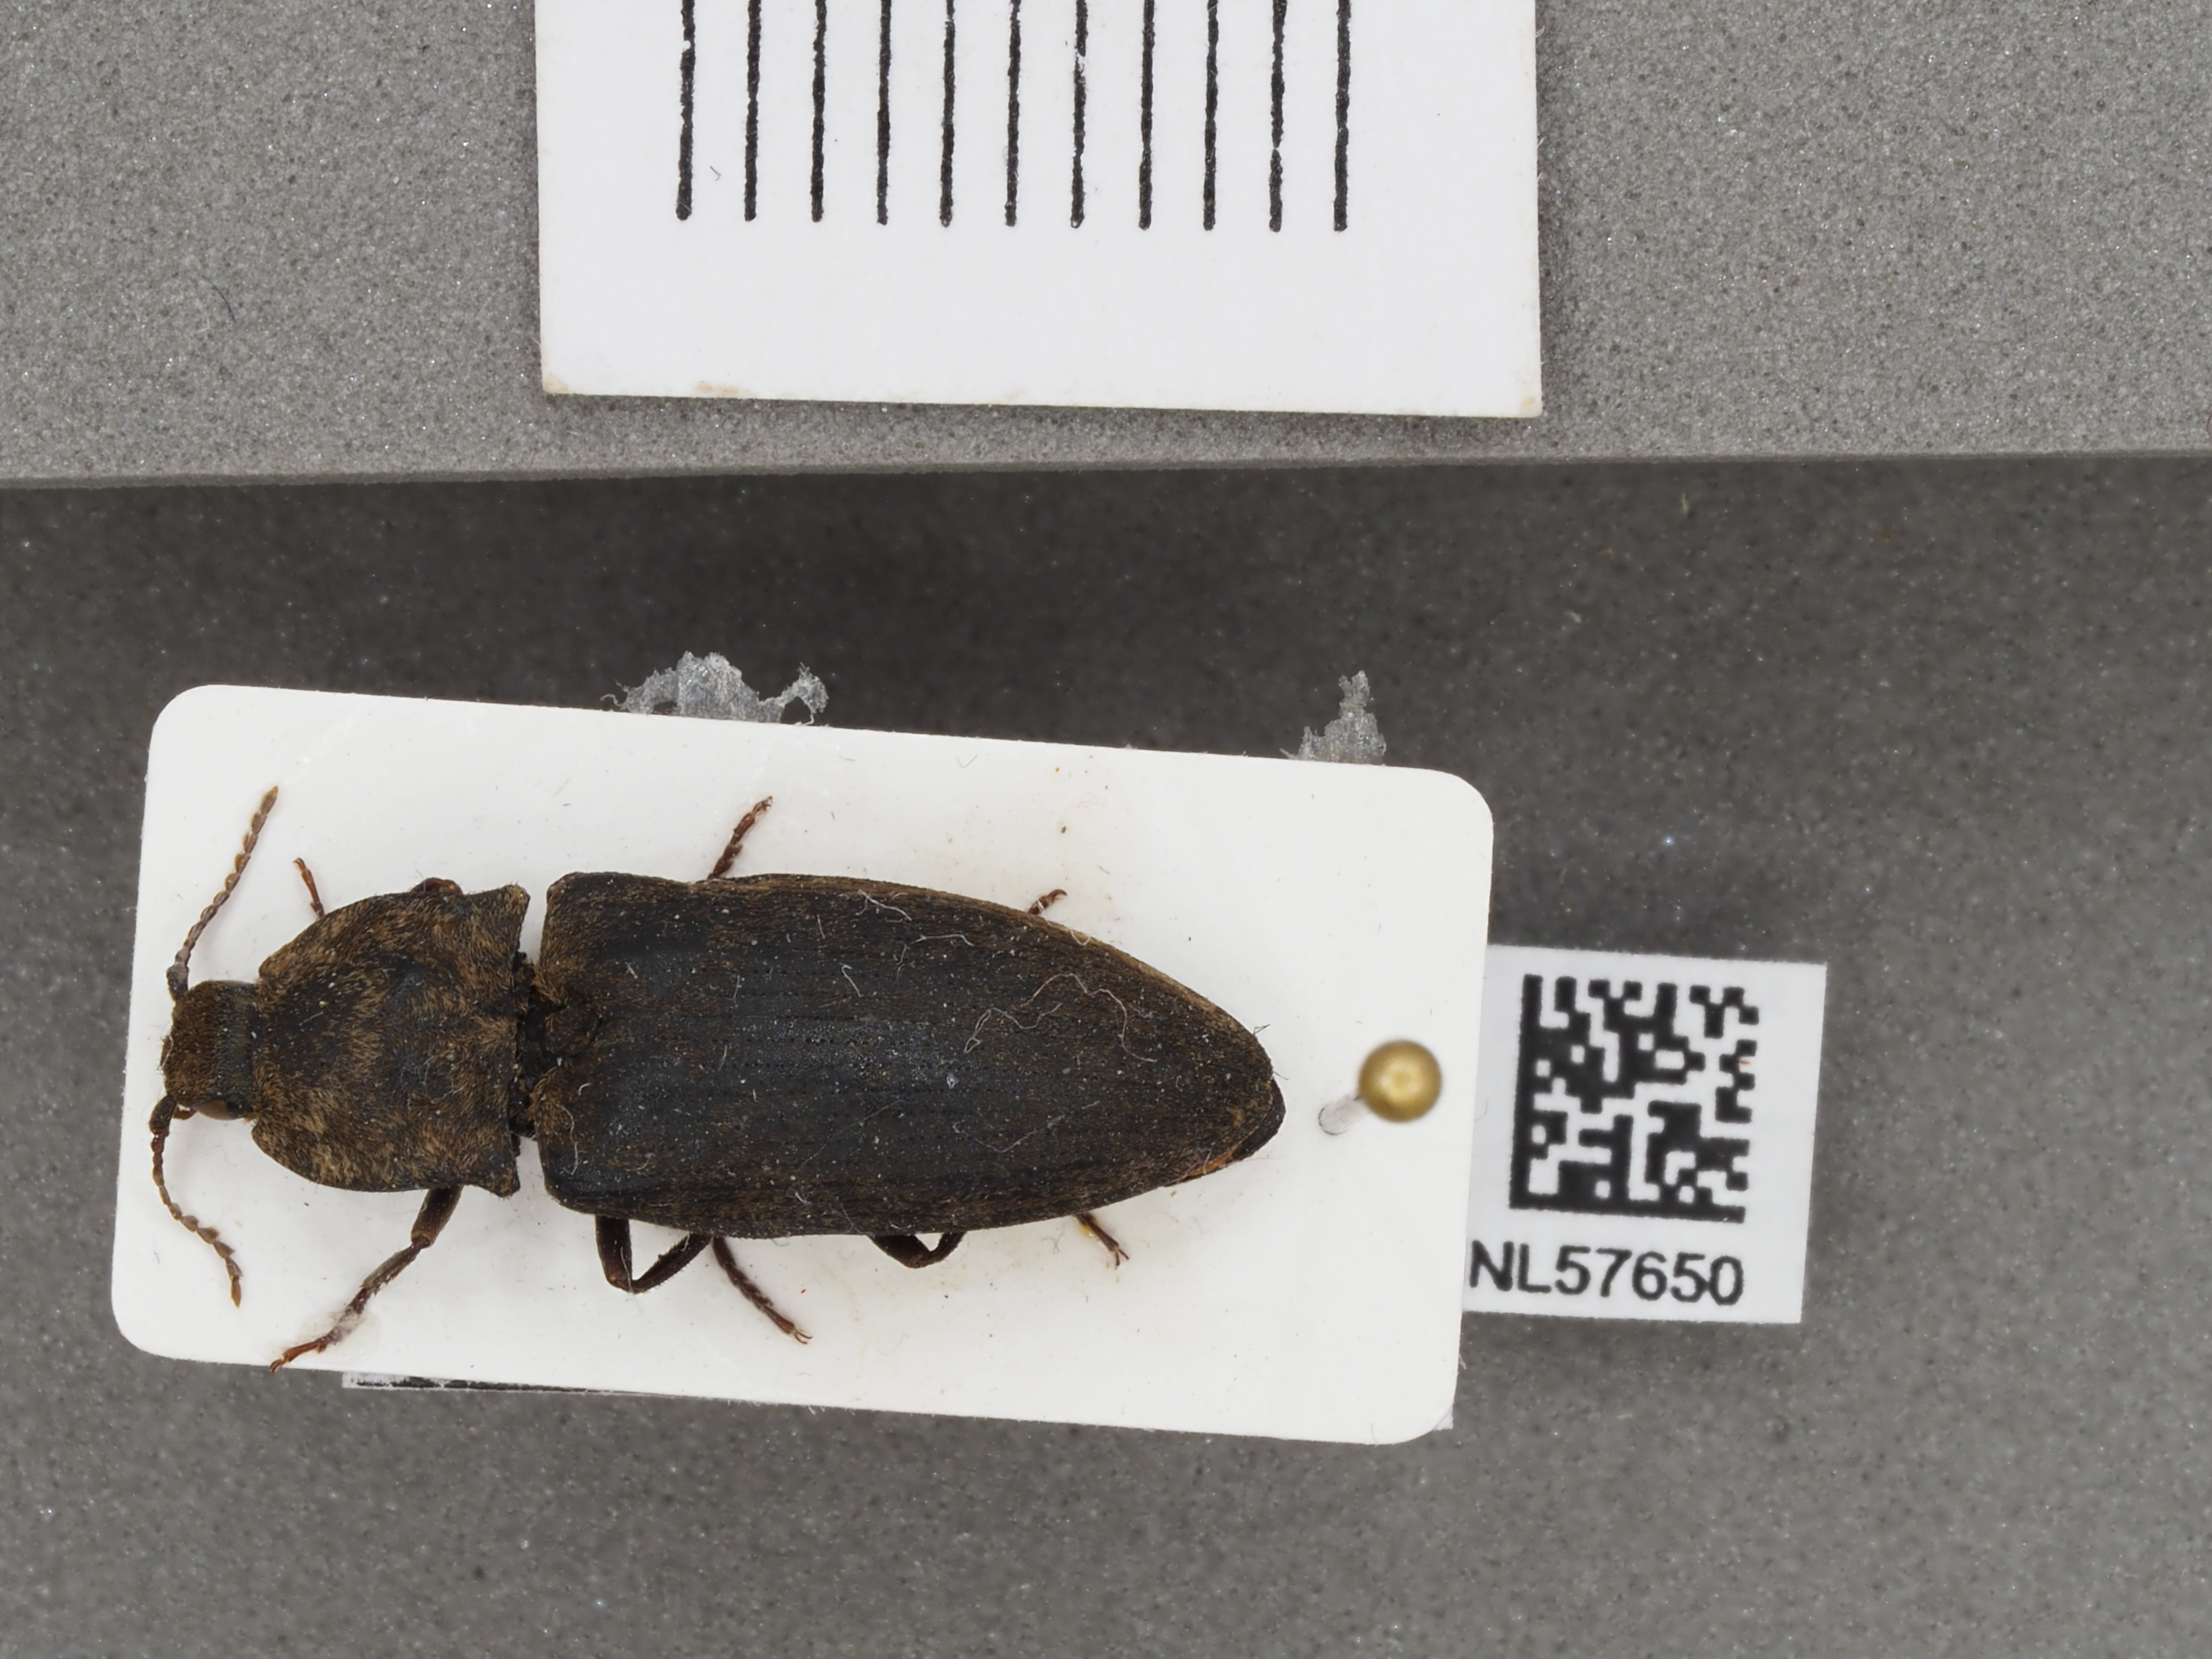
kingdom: Animalia
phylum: Arthropoda
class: Insecta
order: Coleoptera
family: Elateridae
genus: Agrypnus
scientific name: Agrypnus murinus
